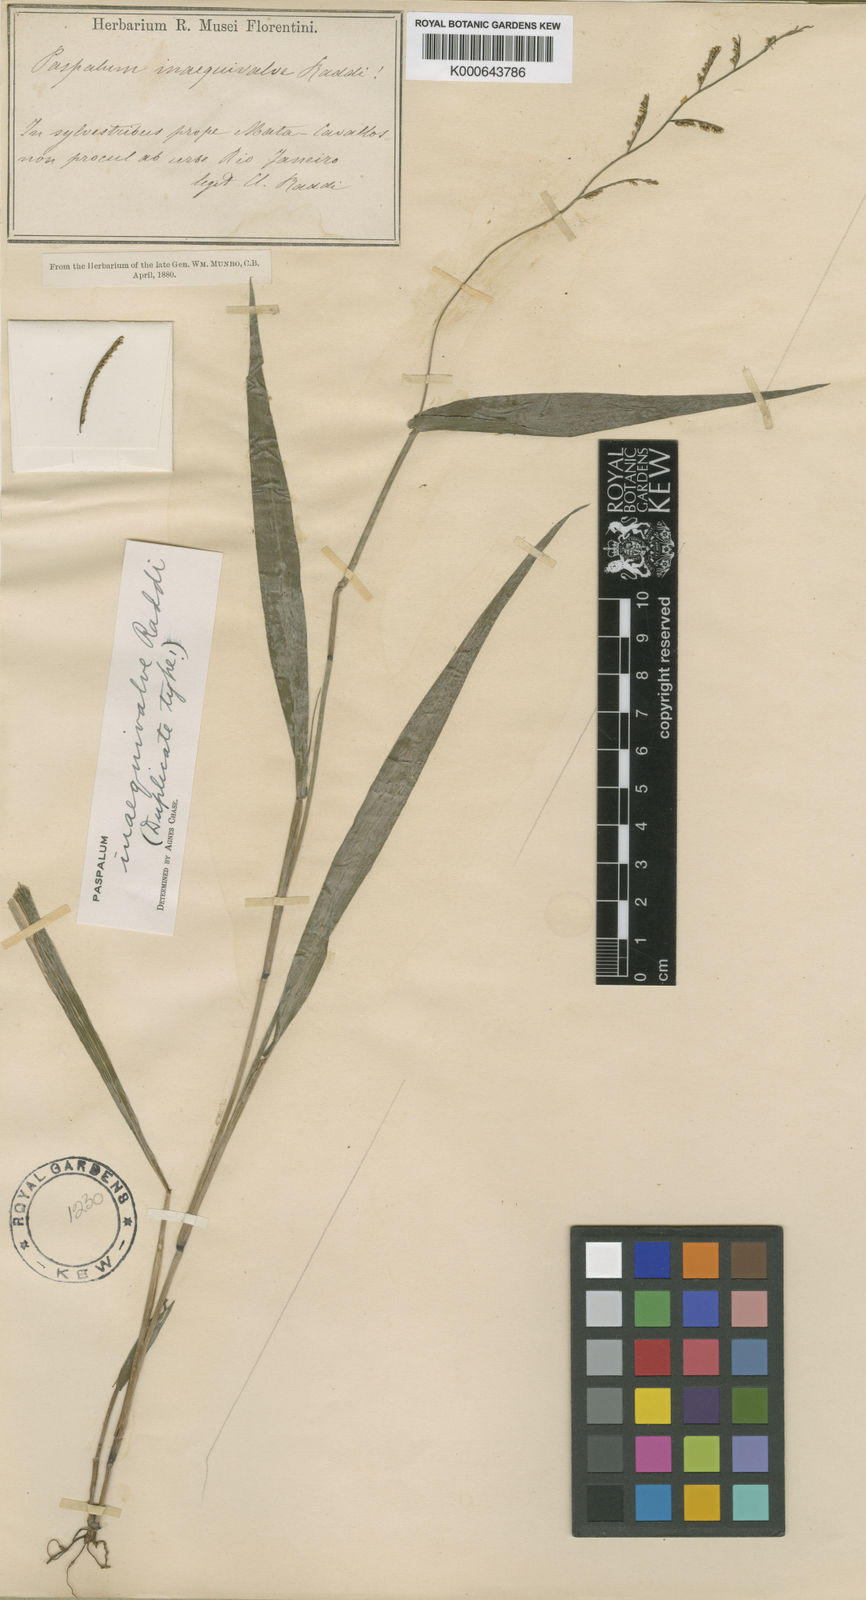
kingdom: Plantae
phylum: Tracheophyta
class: Liliopsida
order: Poales
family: Poaceae
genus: Paspalum
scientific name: Paspalum inaequivalve
